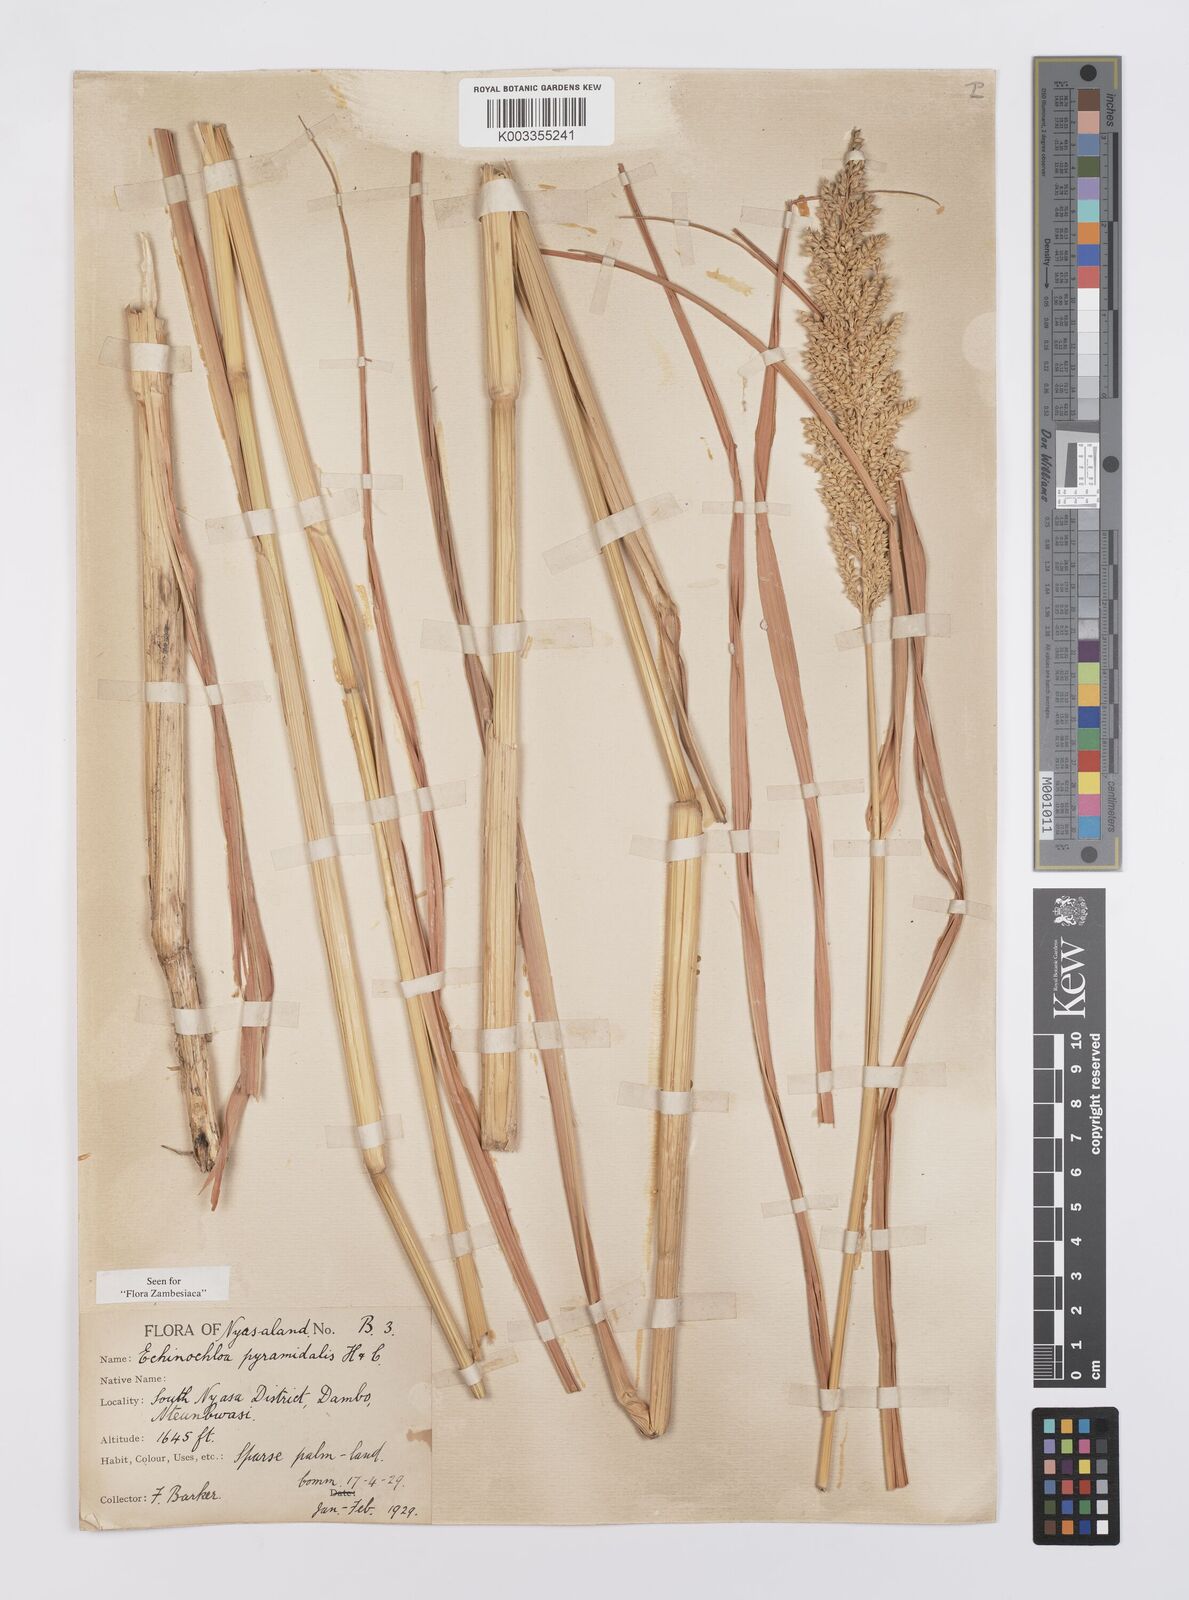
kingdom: Plantae
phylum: Tracheophyta
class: Liliopsida
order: Poales
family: Poaceae
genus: Echinochloa
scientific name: Echinochloa pyramidalis
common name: Antelope grass
